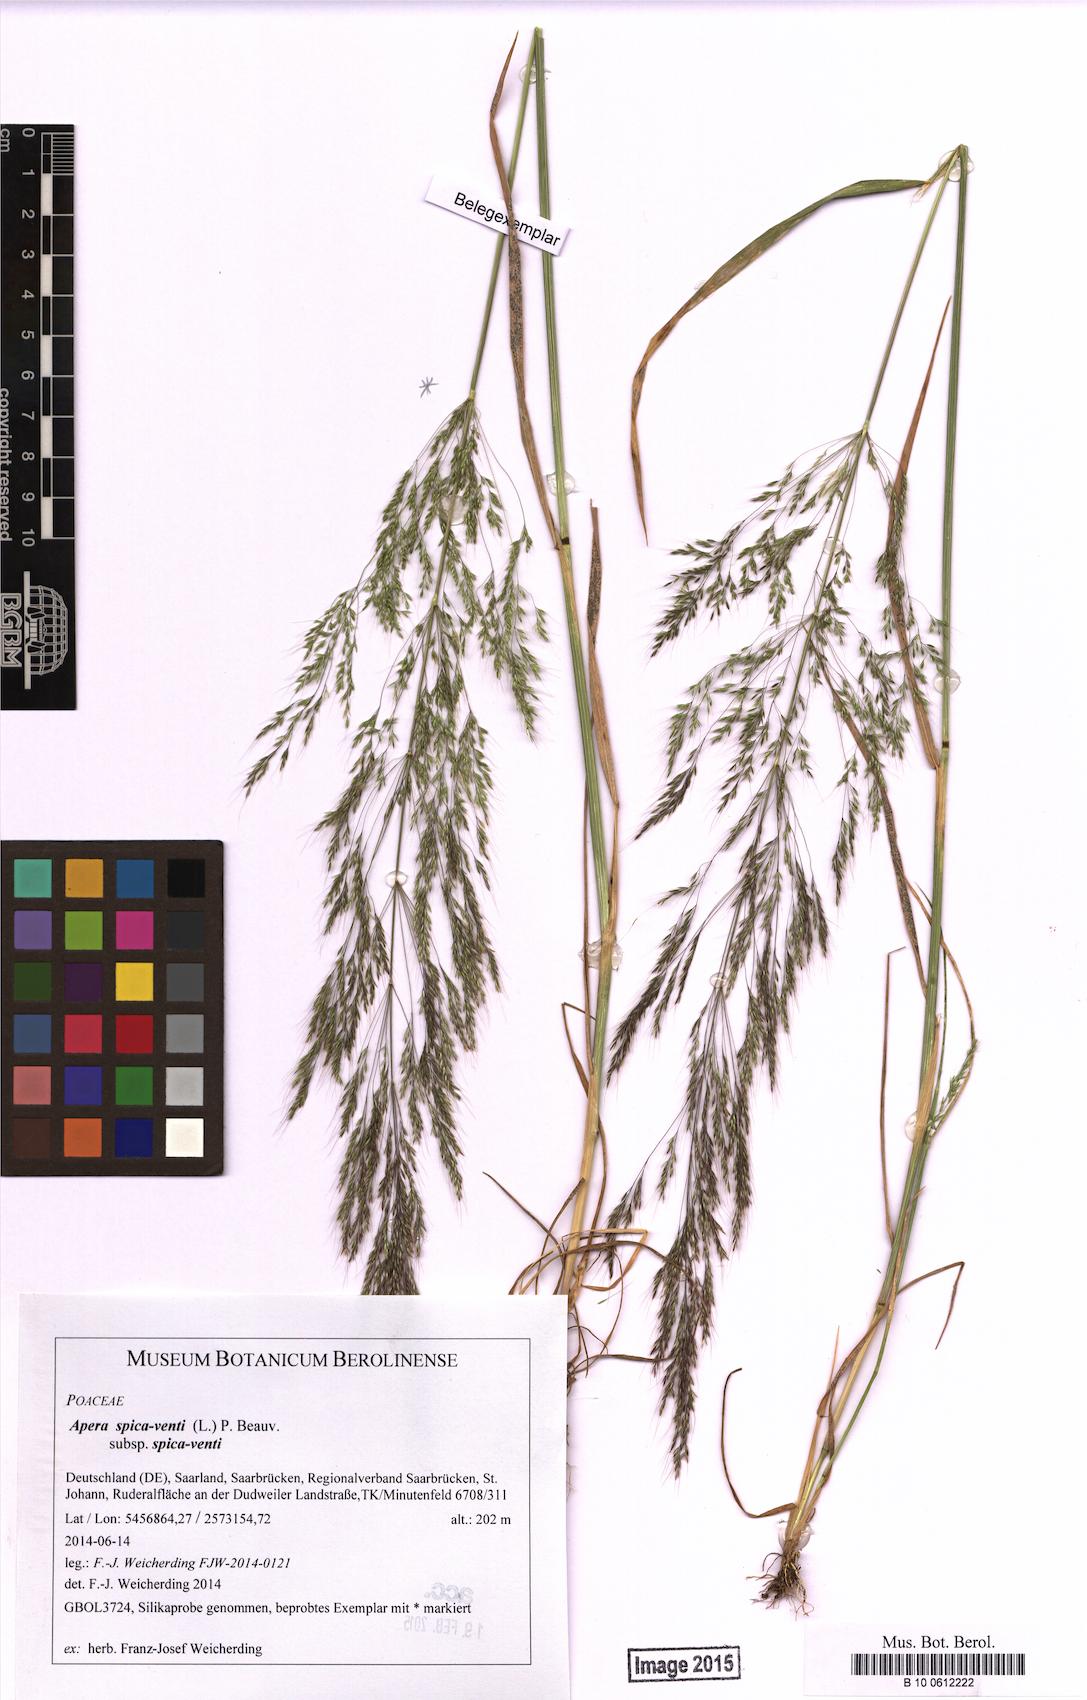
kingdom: Plantae
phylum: Tracheophyta
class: Liliopsida
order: Poales
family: Poaceae
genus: Apera
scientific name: Apera spica-venti
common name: Loose silky-bent
